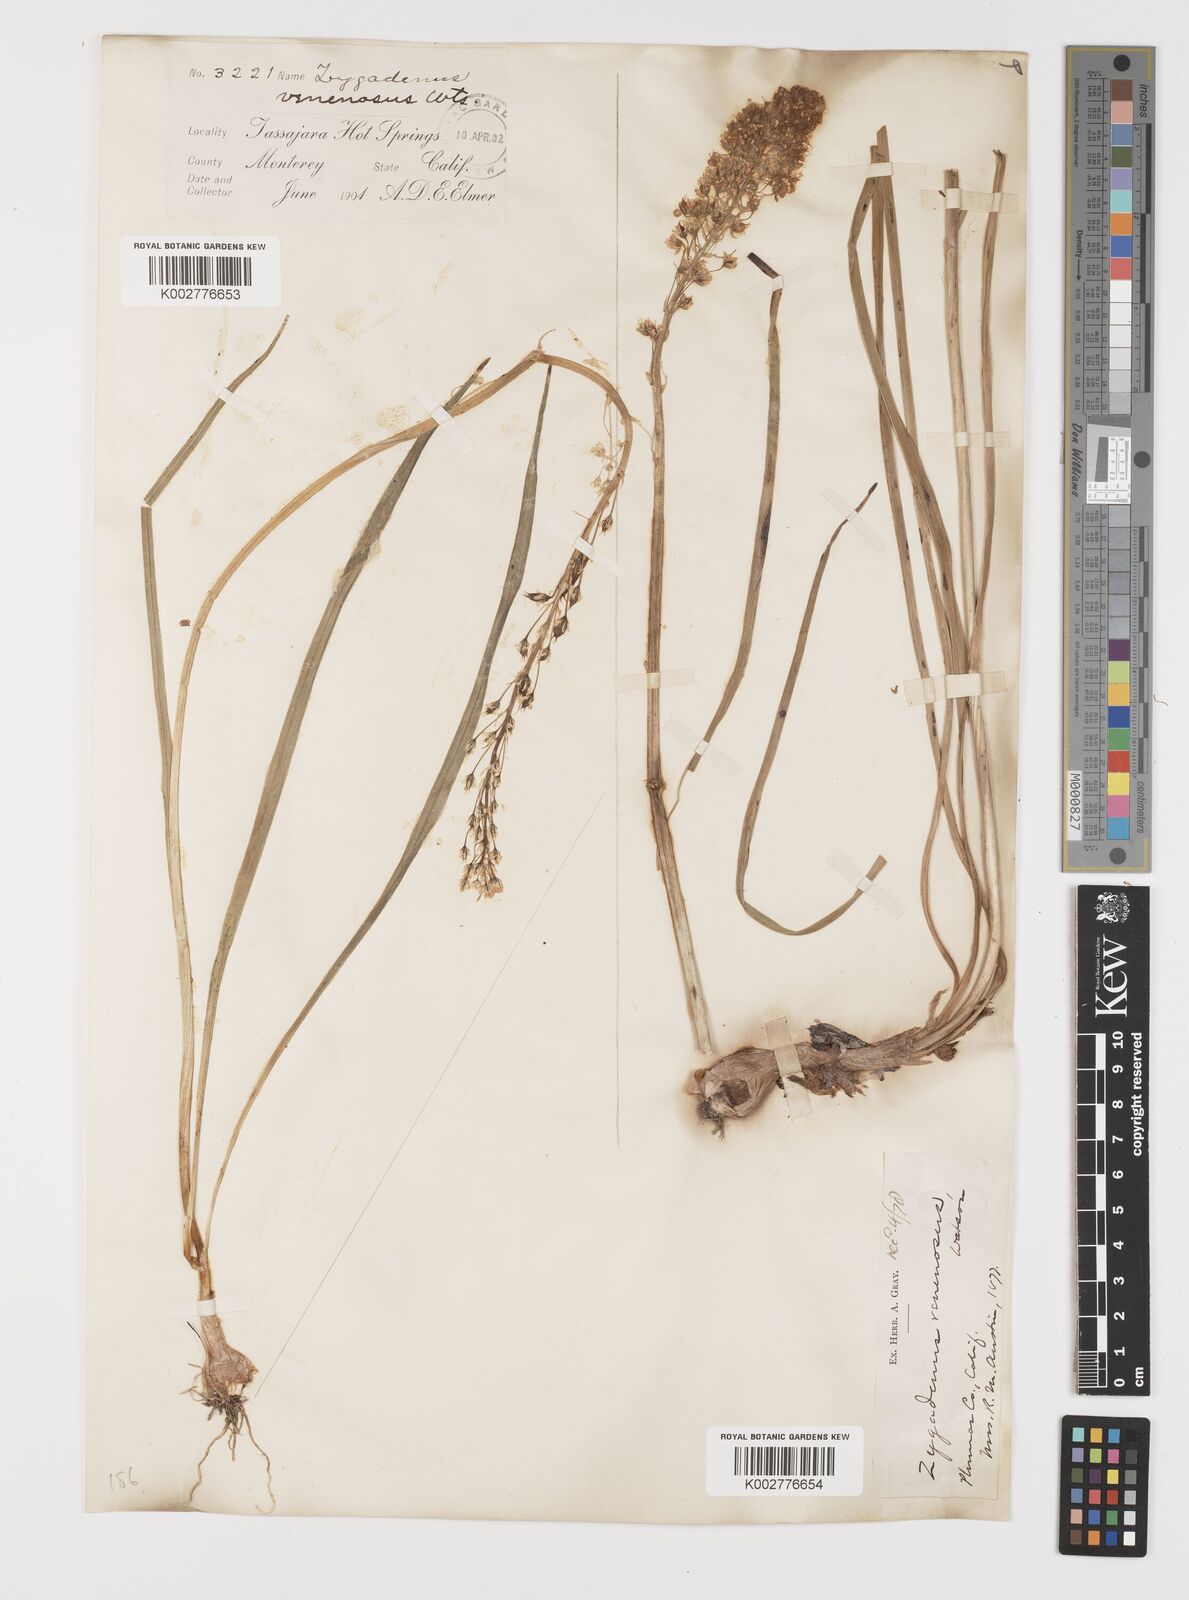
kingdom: Plantae
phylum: Tracheophyta
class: Liliopsida
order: Liliales
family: Melanthiaceae
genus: Toxicoscordion
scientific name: Toxicoscordion venenosum
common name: Meadow death camas
